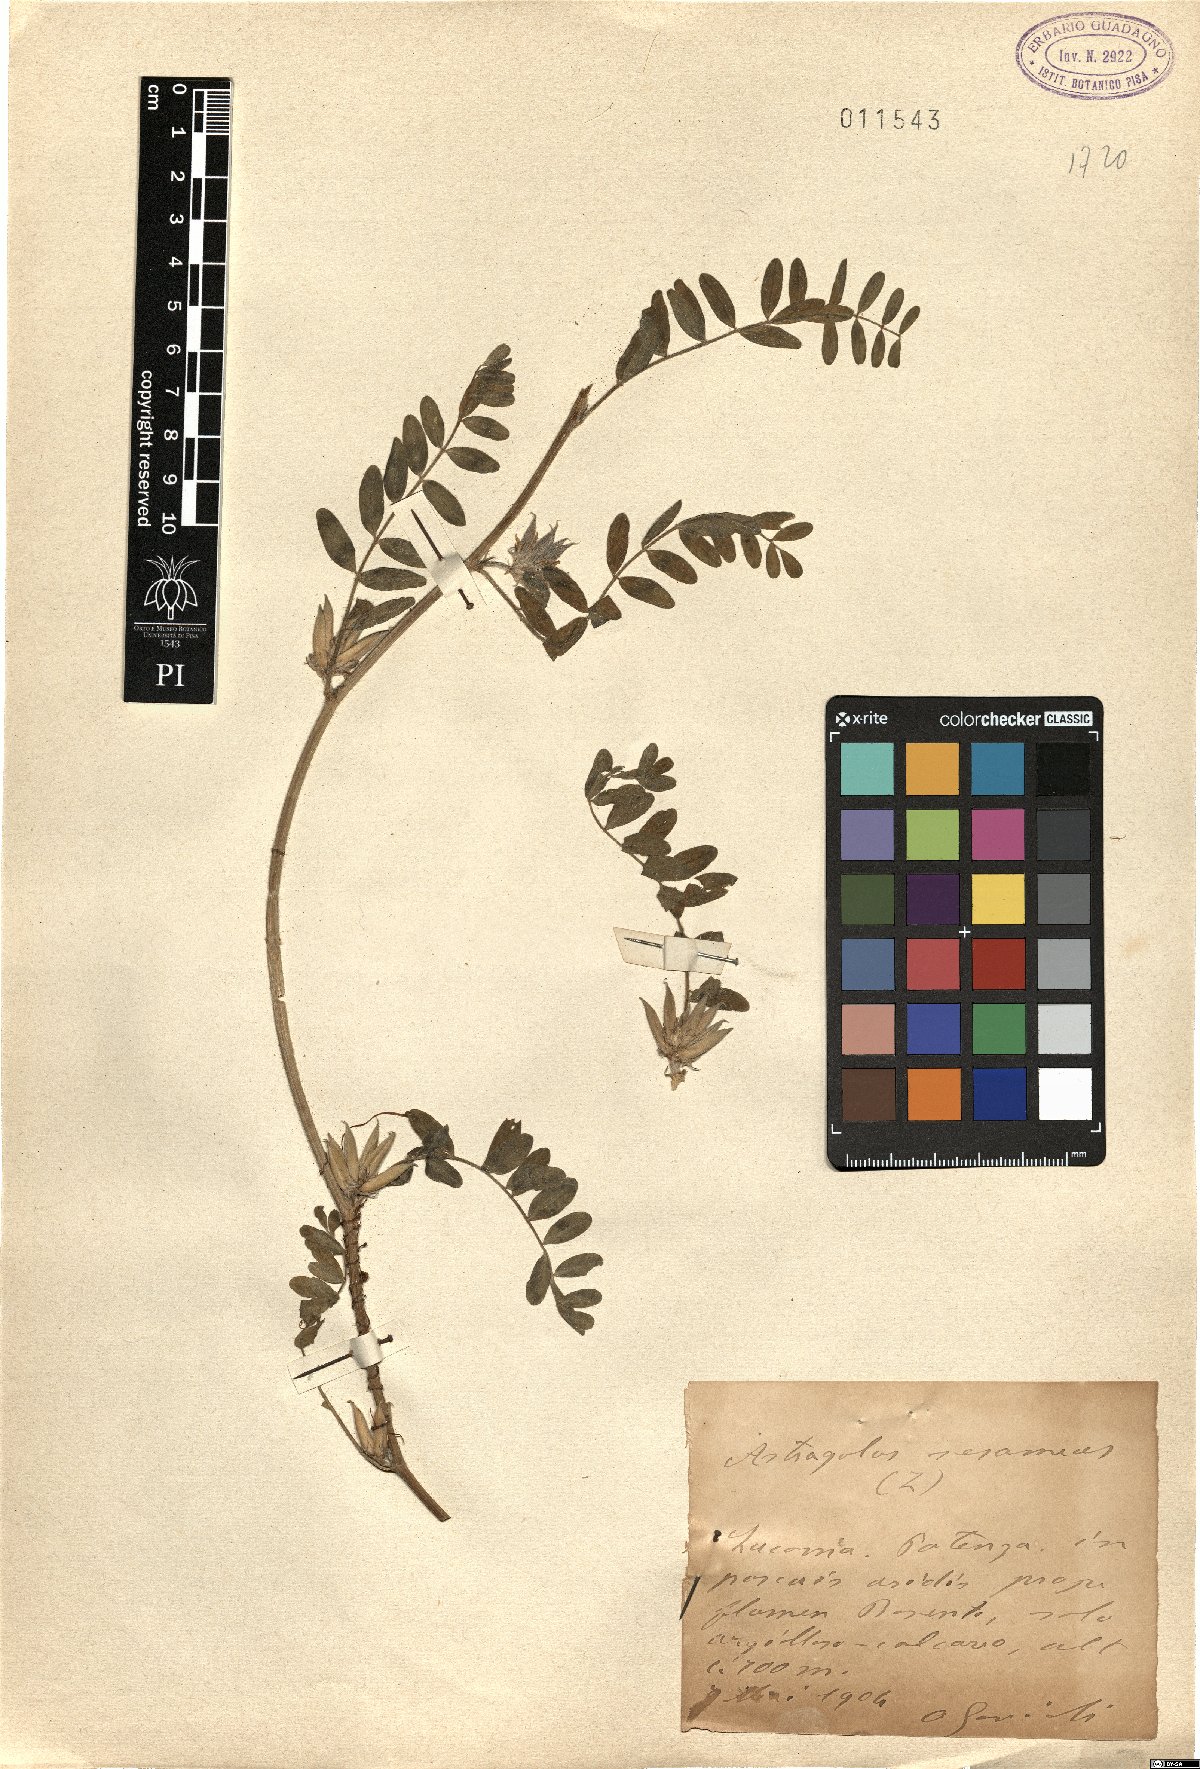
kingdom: Plantae
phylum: Tracheophyta
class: Magnoliopsida
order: Fabales
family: Fabaceae
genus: Astragalus
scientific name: Astragalus sesameus
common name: Purple milk-vetch
